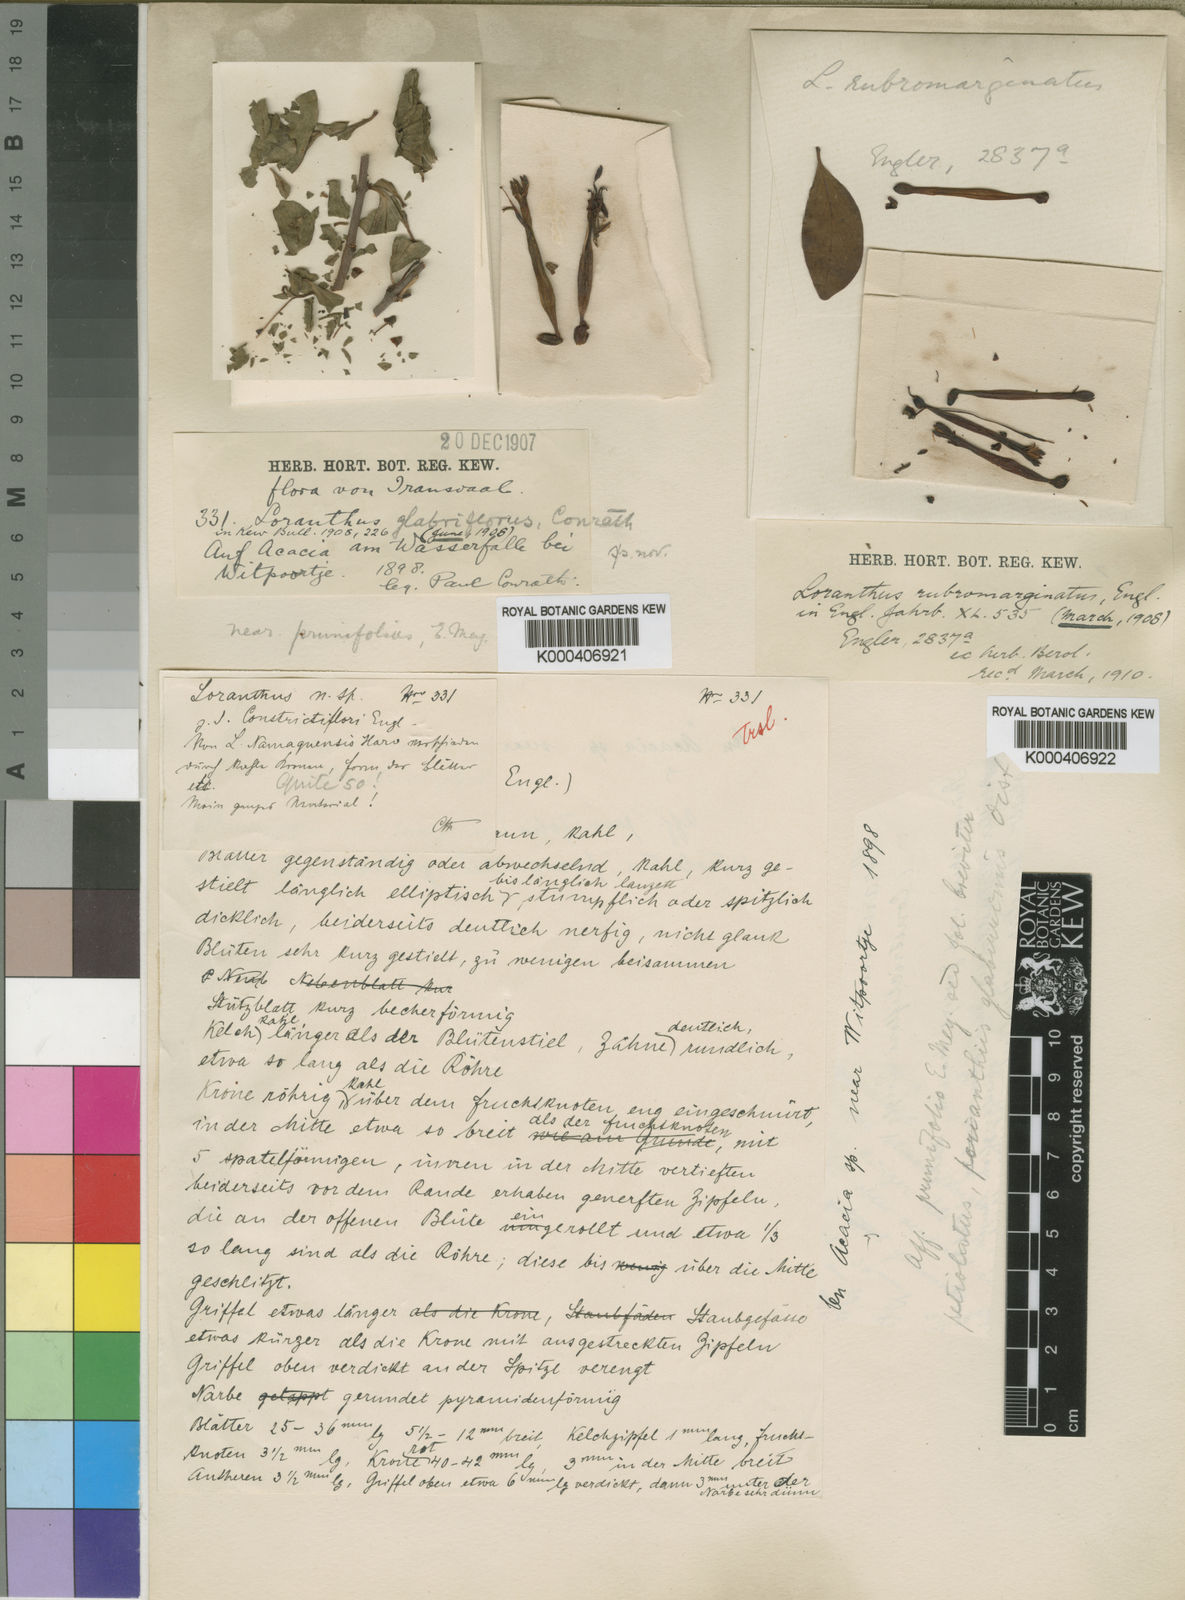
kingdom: Plantae
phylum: Tracheophyta
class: Magnoliopsida
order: Santalales
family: Loranthaceae
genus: Tapinanthus
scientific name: Tapinanthus rubromarginatus
